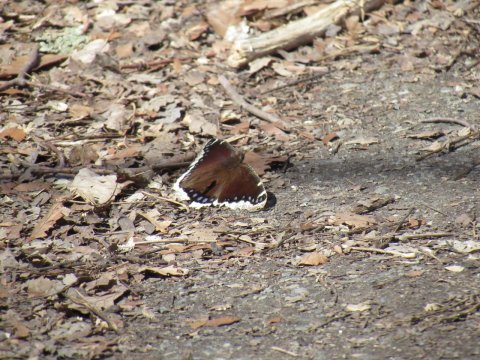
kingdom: Animalia
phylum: Arthropoda
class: Insecta
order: Lepidoptera
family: Nymphalidae
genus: Nymphalis
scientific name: Nymphalis antiopa
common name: Mourning Cloak
